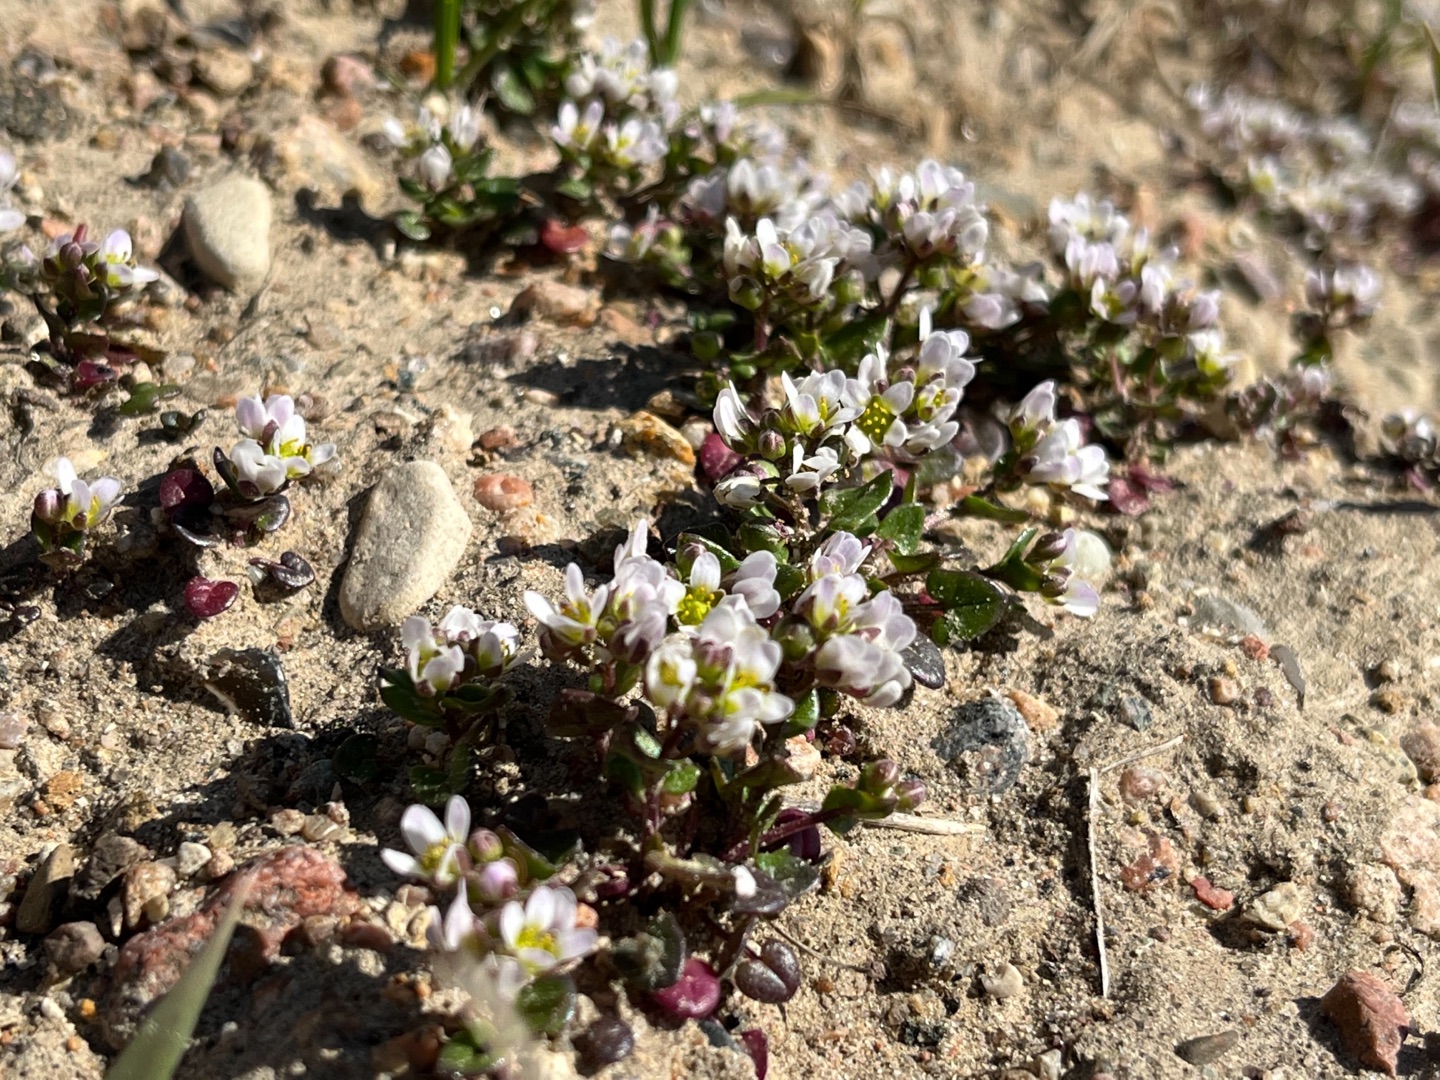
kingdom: Plantae
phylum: Tracheophyta
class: Magnoliopsida
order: Brassicales
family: Brassicaceae
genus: Cochlearia
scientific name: Cochlearia danica
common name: Dansk kokleare
